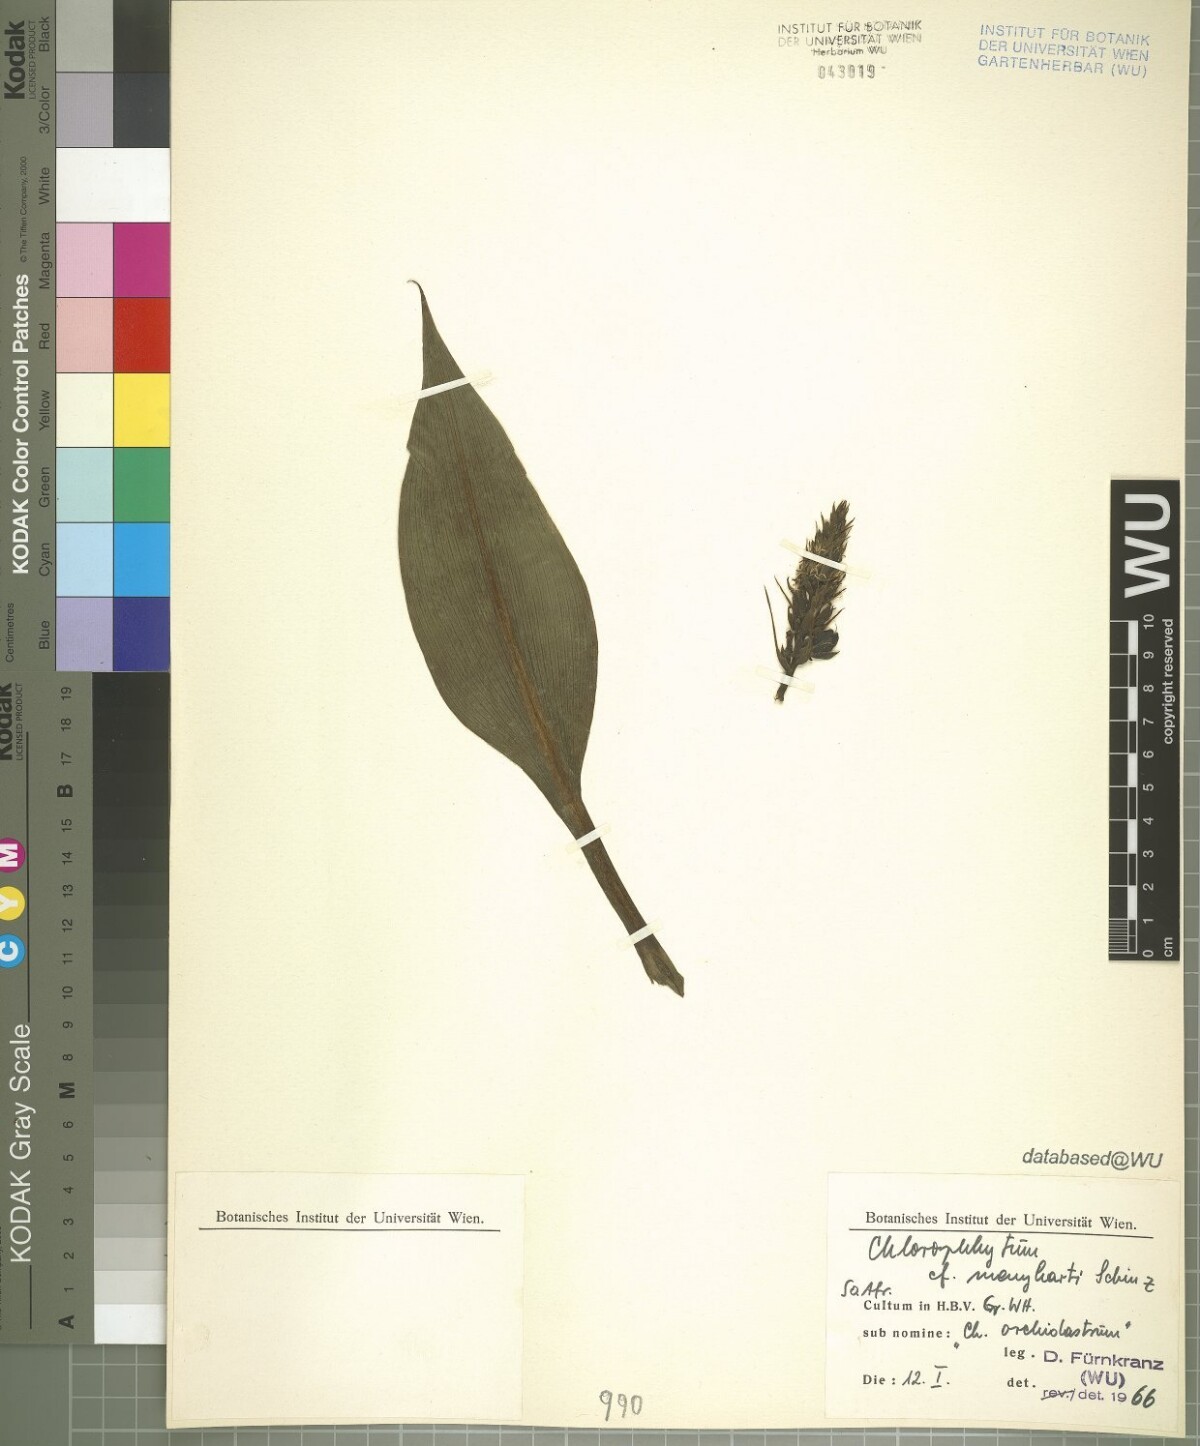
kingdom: Plantae
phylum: Tracheophyta
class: Liliopsida
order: Asparagales
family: Asparagaceae
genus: Chlorophytum
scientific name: Chlorophytum stenopetalum
